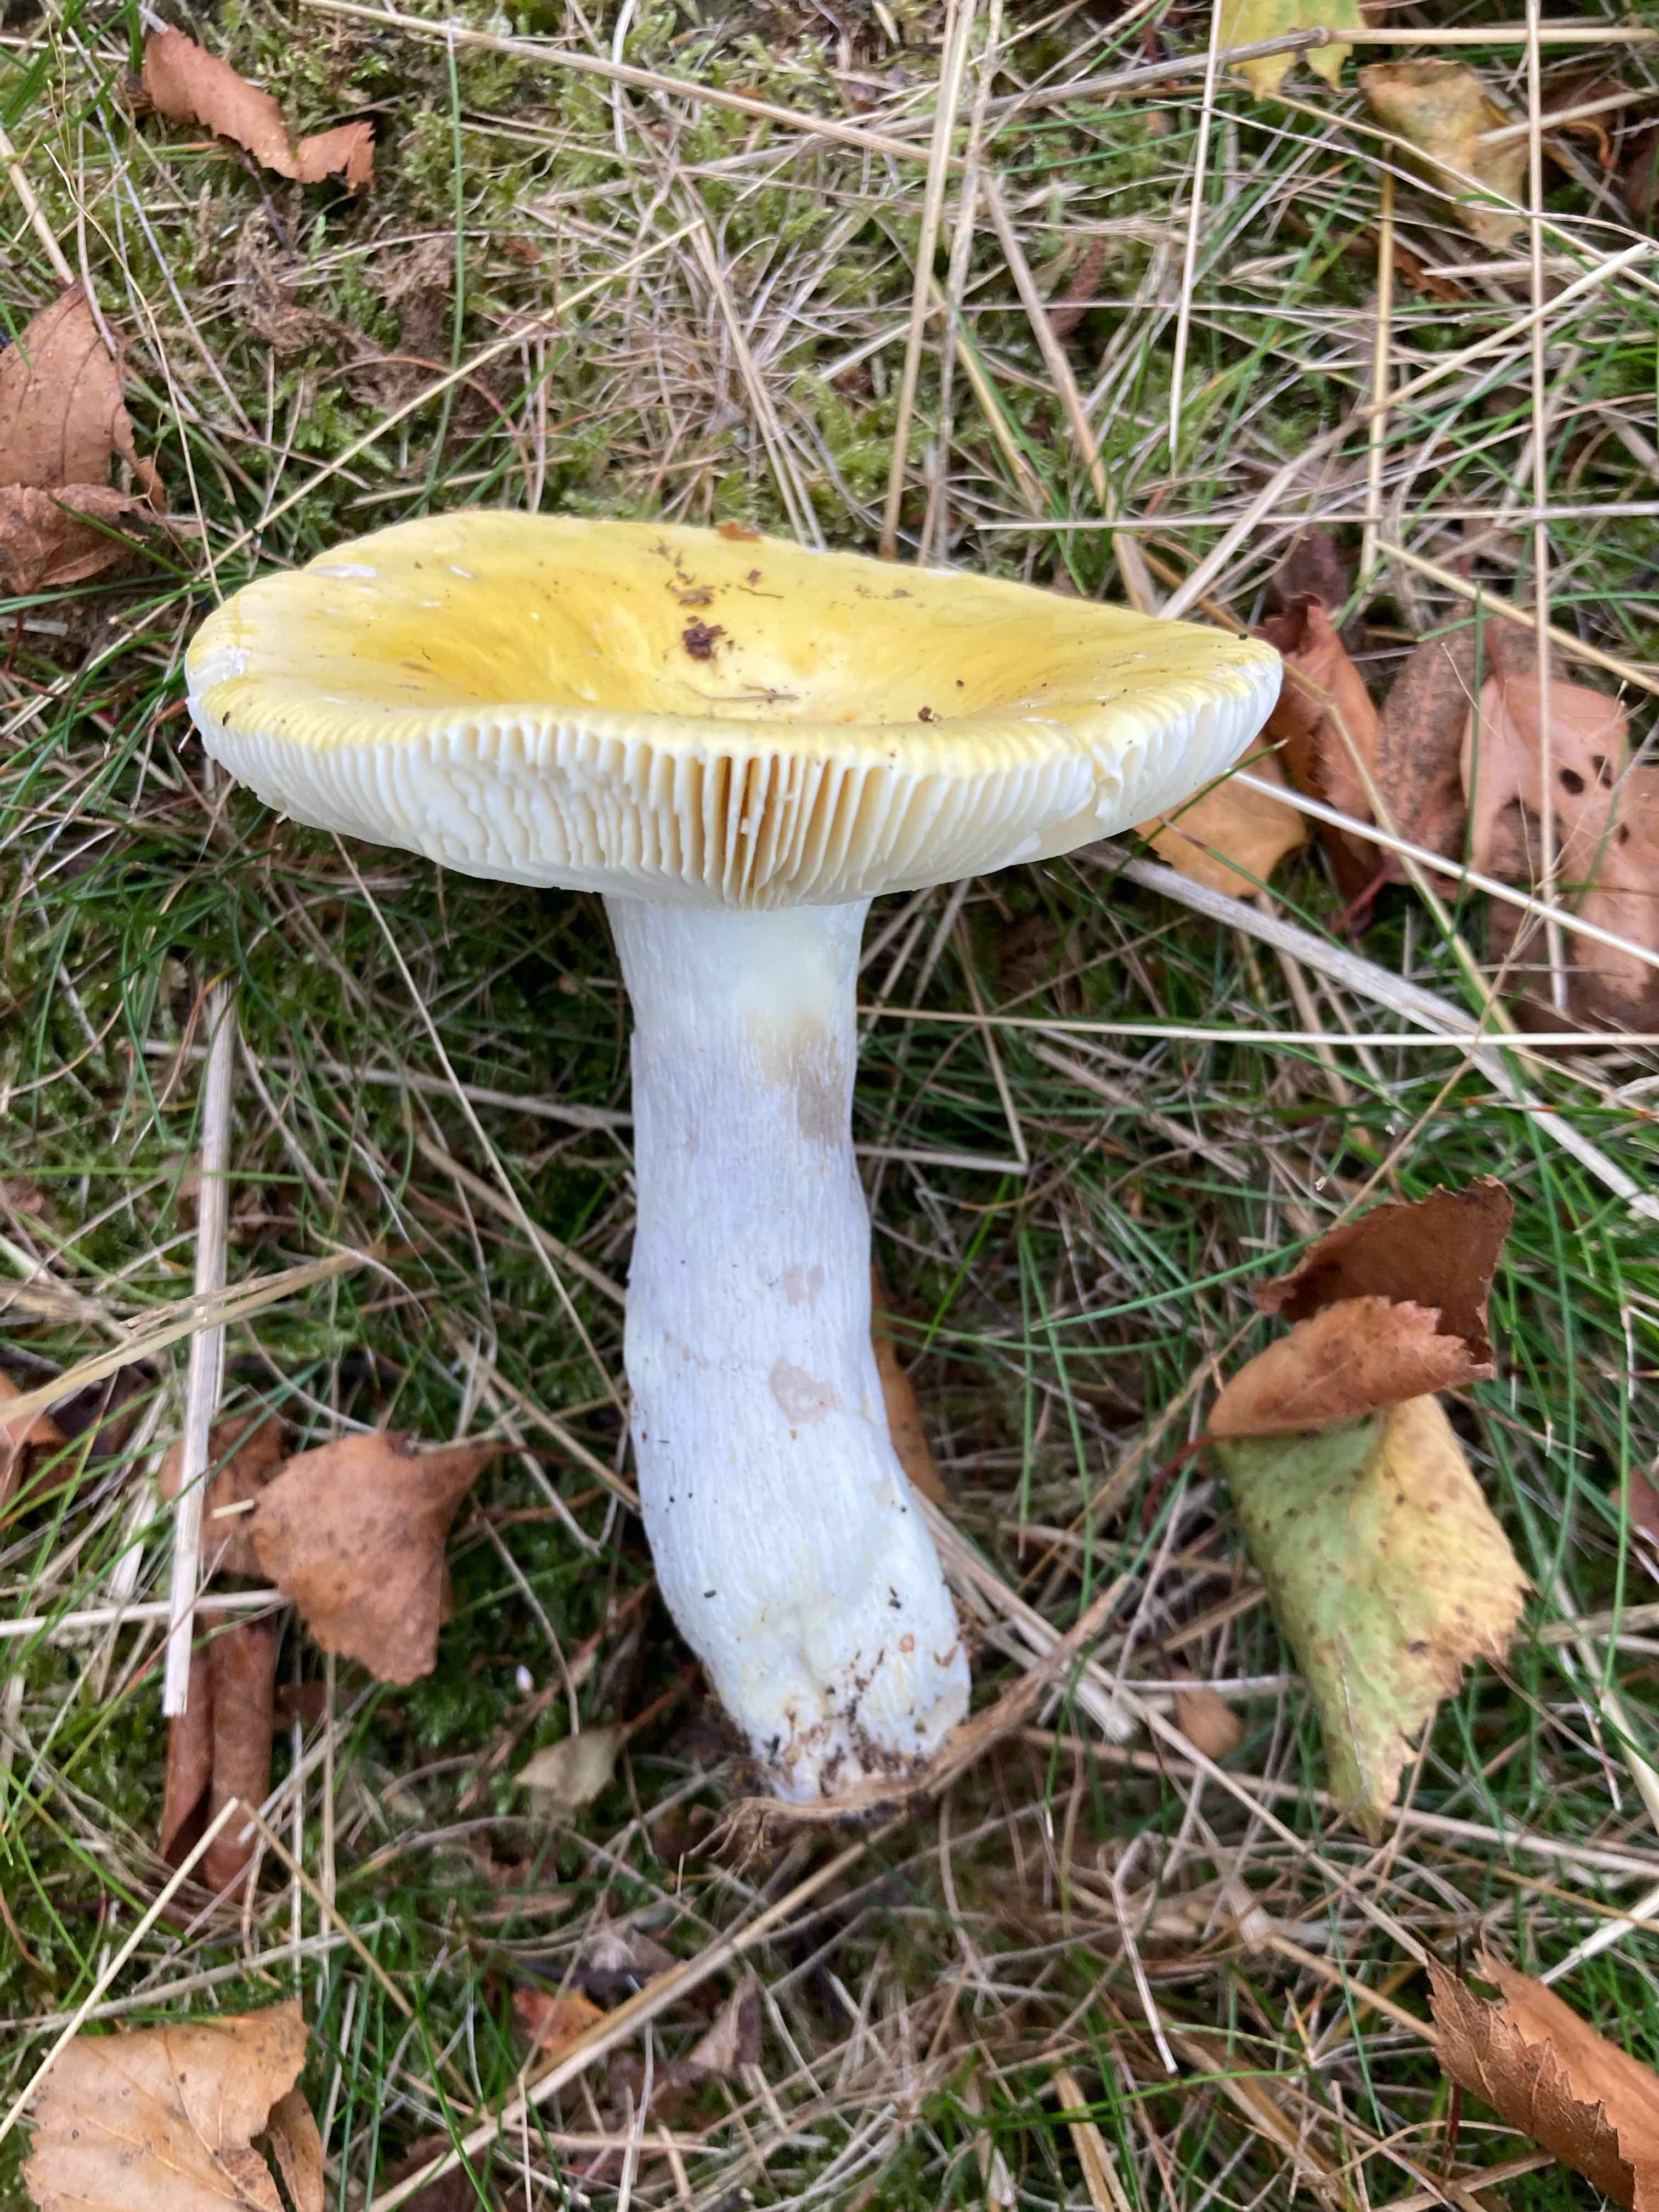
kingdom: Fungi
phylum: Basidiomycota
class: Agaricomycetes
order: Russulales
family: Russulaceae
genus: Russula
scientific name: Russula claroflava
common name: birke-skørhat
